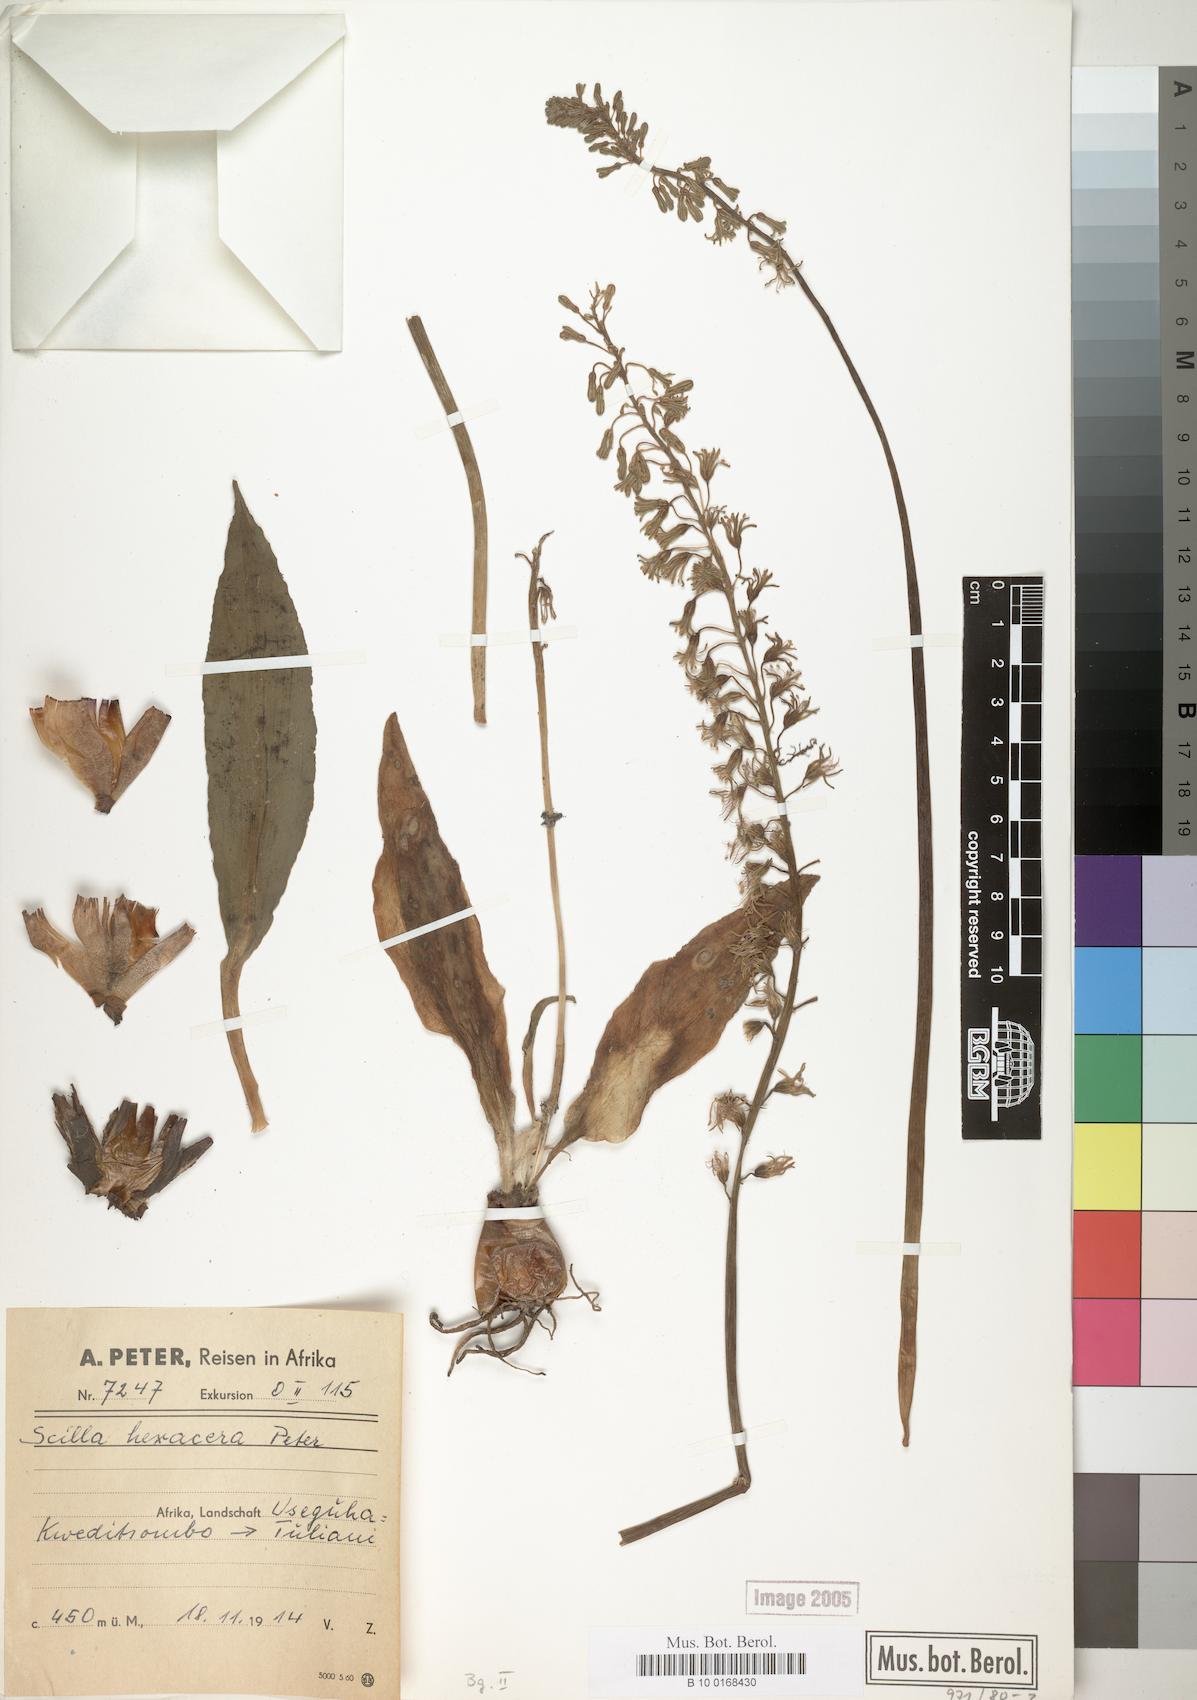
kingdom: Plantae
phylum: Tracheophyta
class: Liliopsida
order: Asparagales
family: Asparagaceae
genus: Scilla
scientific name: Scilla
